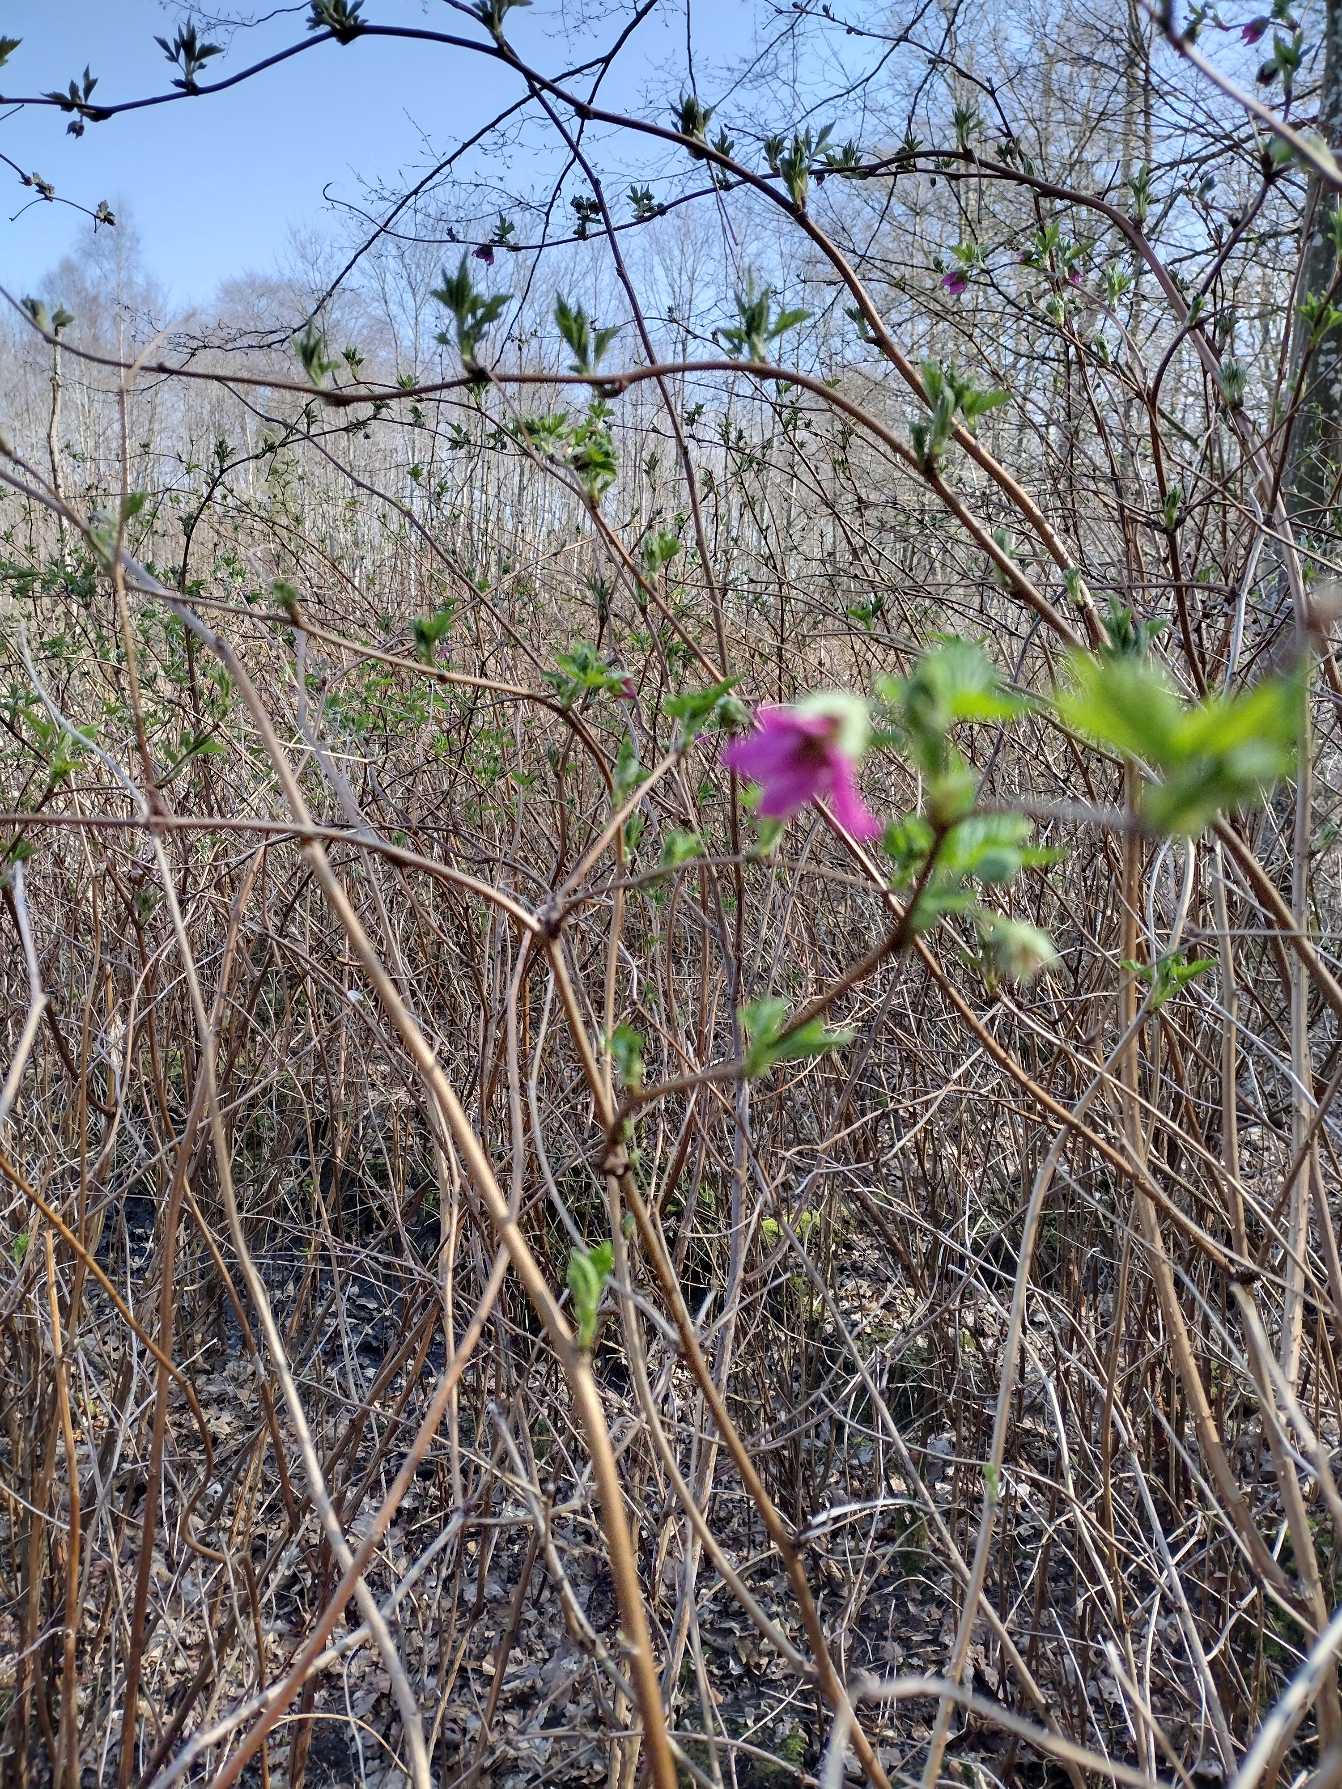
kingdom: Plantae
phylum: Tracheophyta
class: Magnoliopsida
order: Rosales
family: Rosaceae
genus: Rubus
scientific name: Rubus spectabilis
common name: Laksebær
